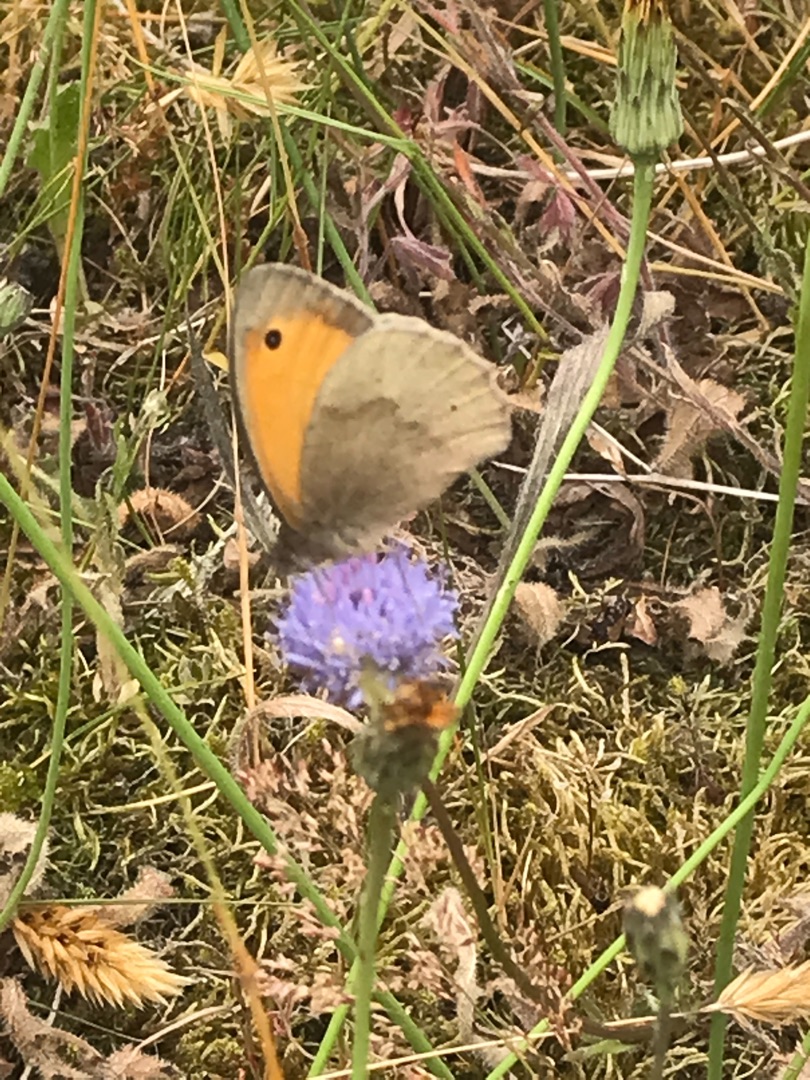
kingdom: Animalia
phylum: Arthropoda
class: Insecta
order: Lepidoptera
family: Nymphalidae
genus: Maniola
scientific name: Maniola jurtina
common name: Græsrandøje
